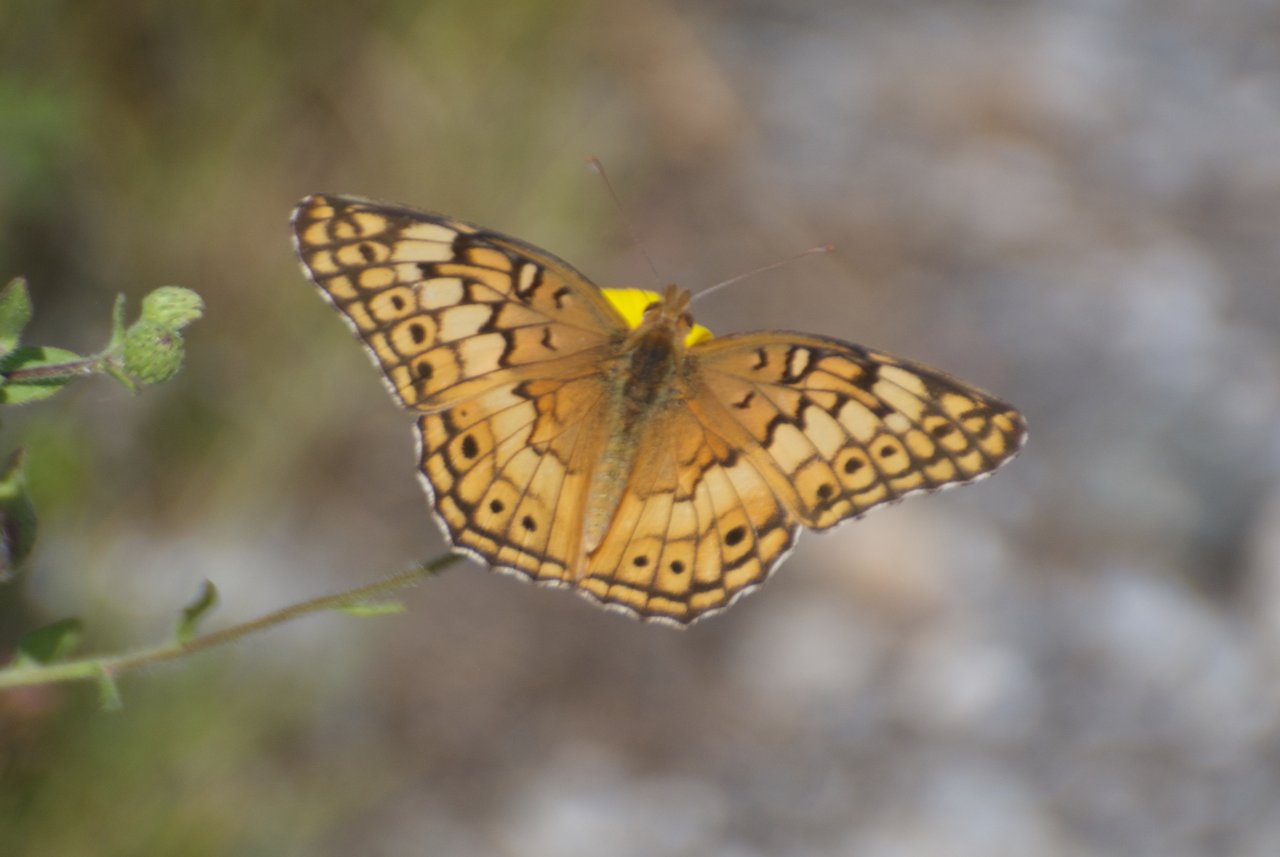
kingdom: Animalia
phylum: Arthropoda
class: Insecta
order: Lepidoptera
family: Nymphalidae
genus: Euptoieta
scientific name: Euptoieta claudia
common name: Variegated Fritillary
